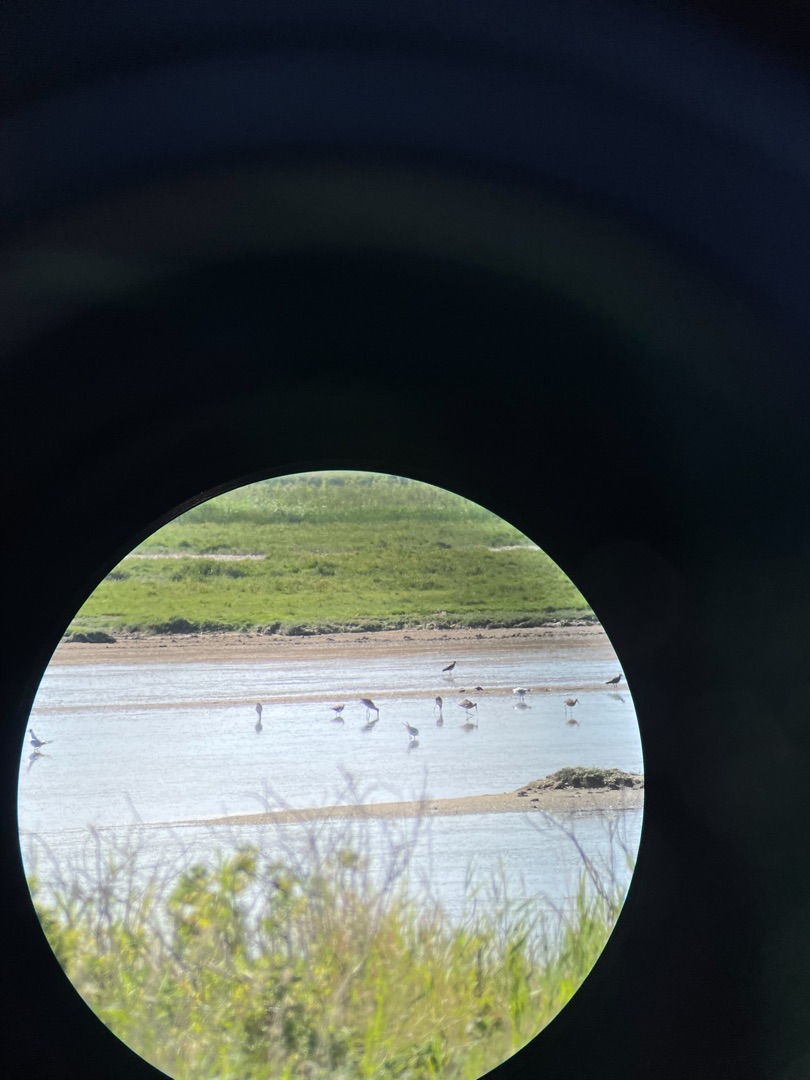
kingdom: Animalia
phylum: Chordata
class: Aves
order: Charadriiformes
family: Scolopacidae
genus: Limosa
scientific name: Limosa limosa
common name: Stor kobbersneppe
